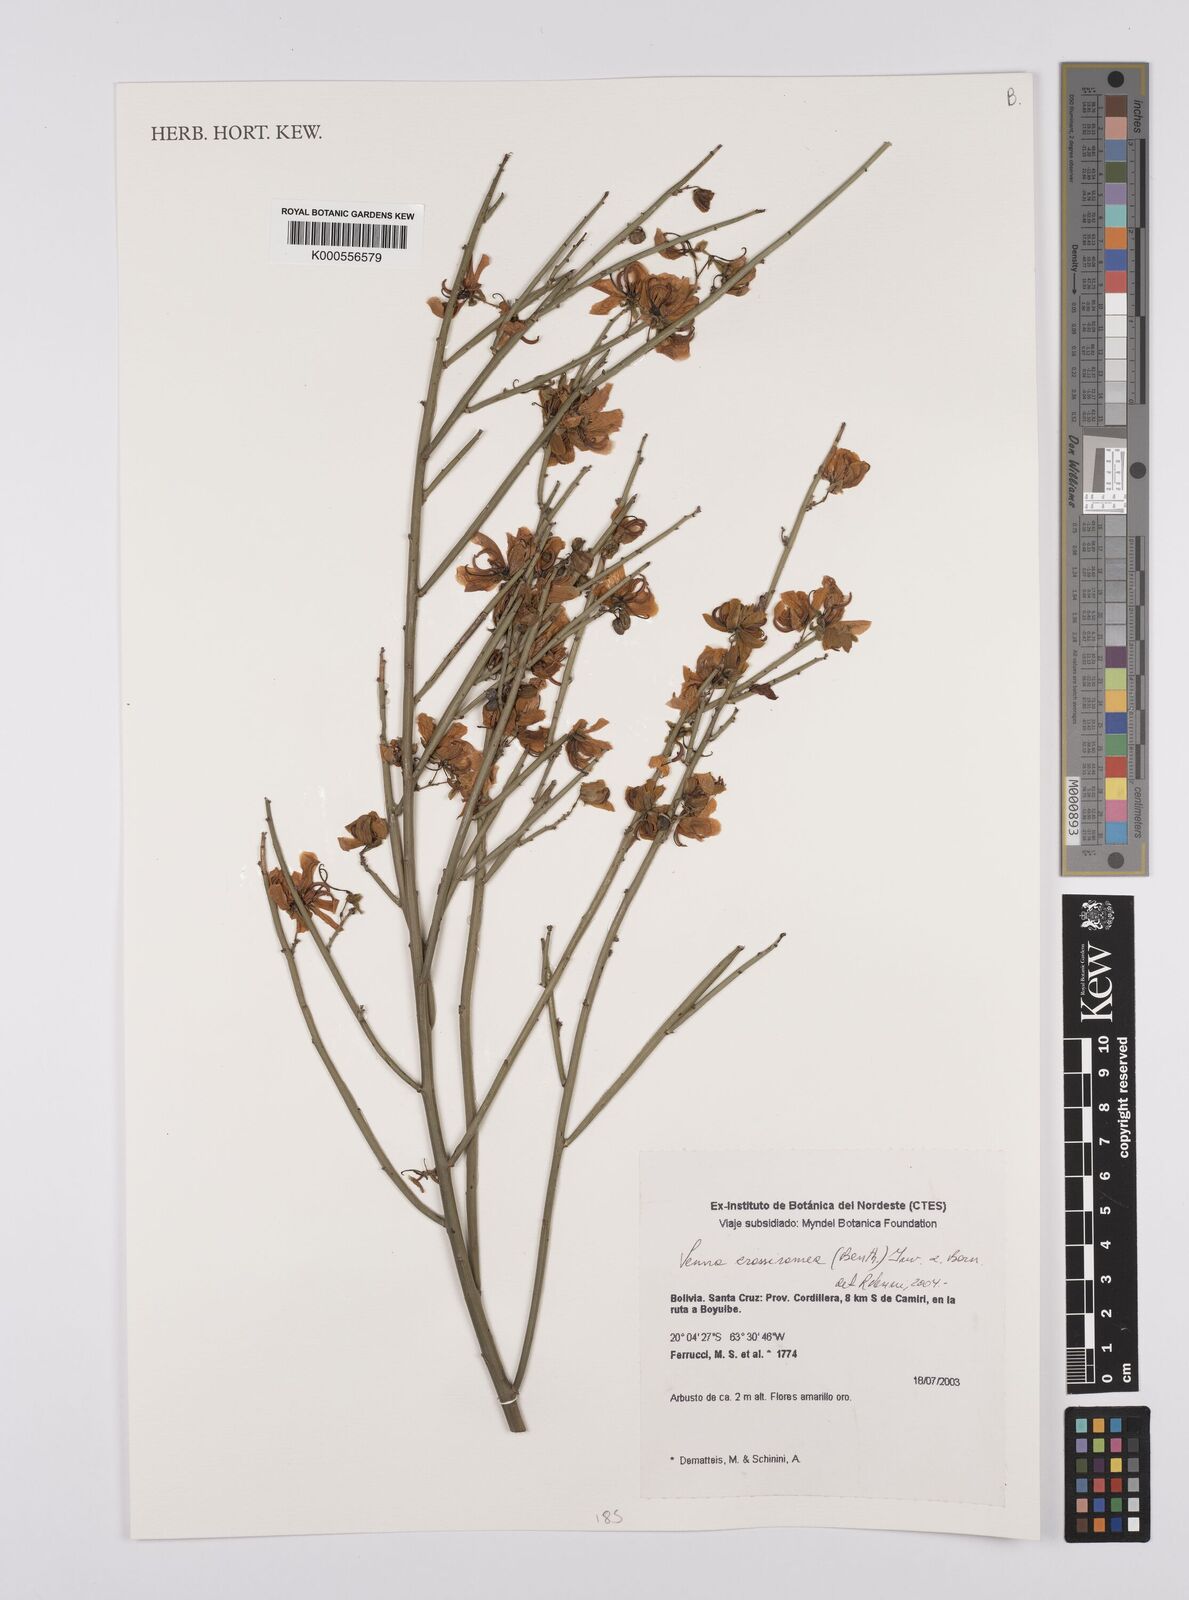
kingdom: Plantae
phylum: Tracheophyta
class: Magnoliopsida
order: Fabales
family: Fabaceae
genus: Senna
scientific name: Senna crassiramea
